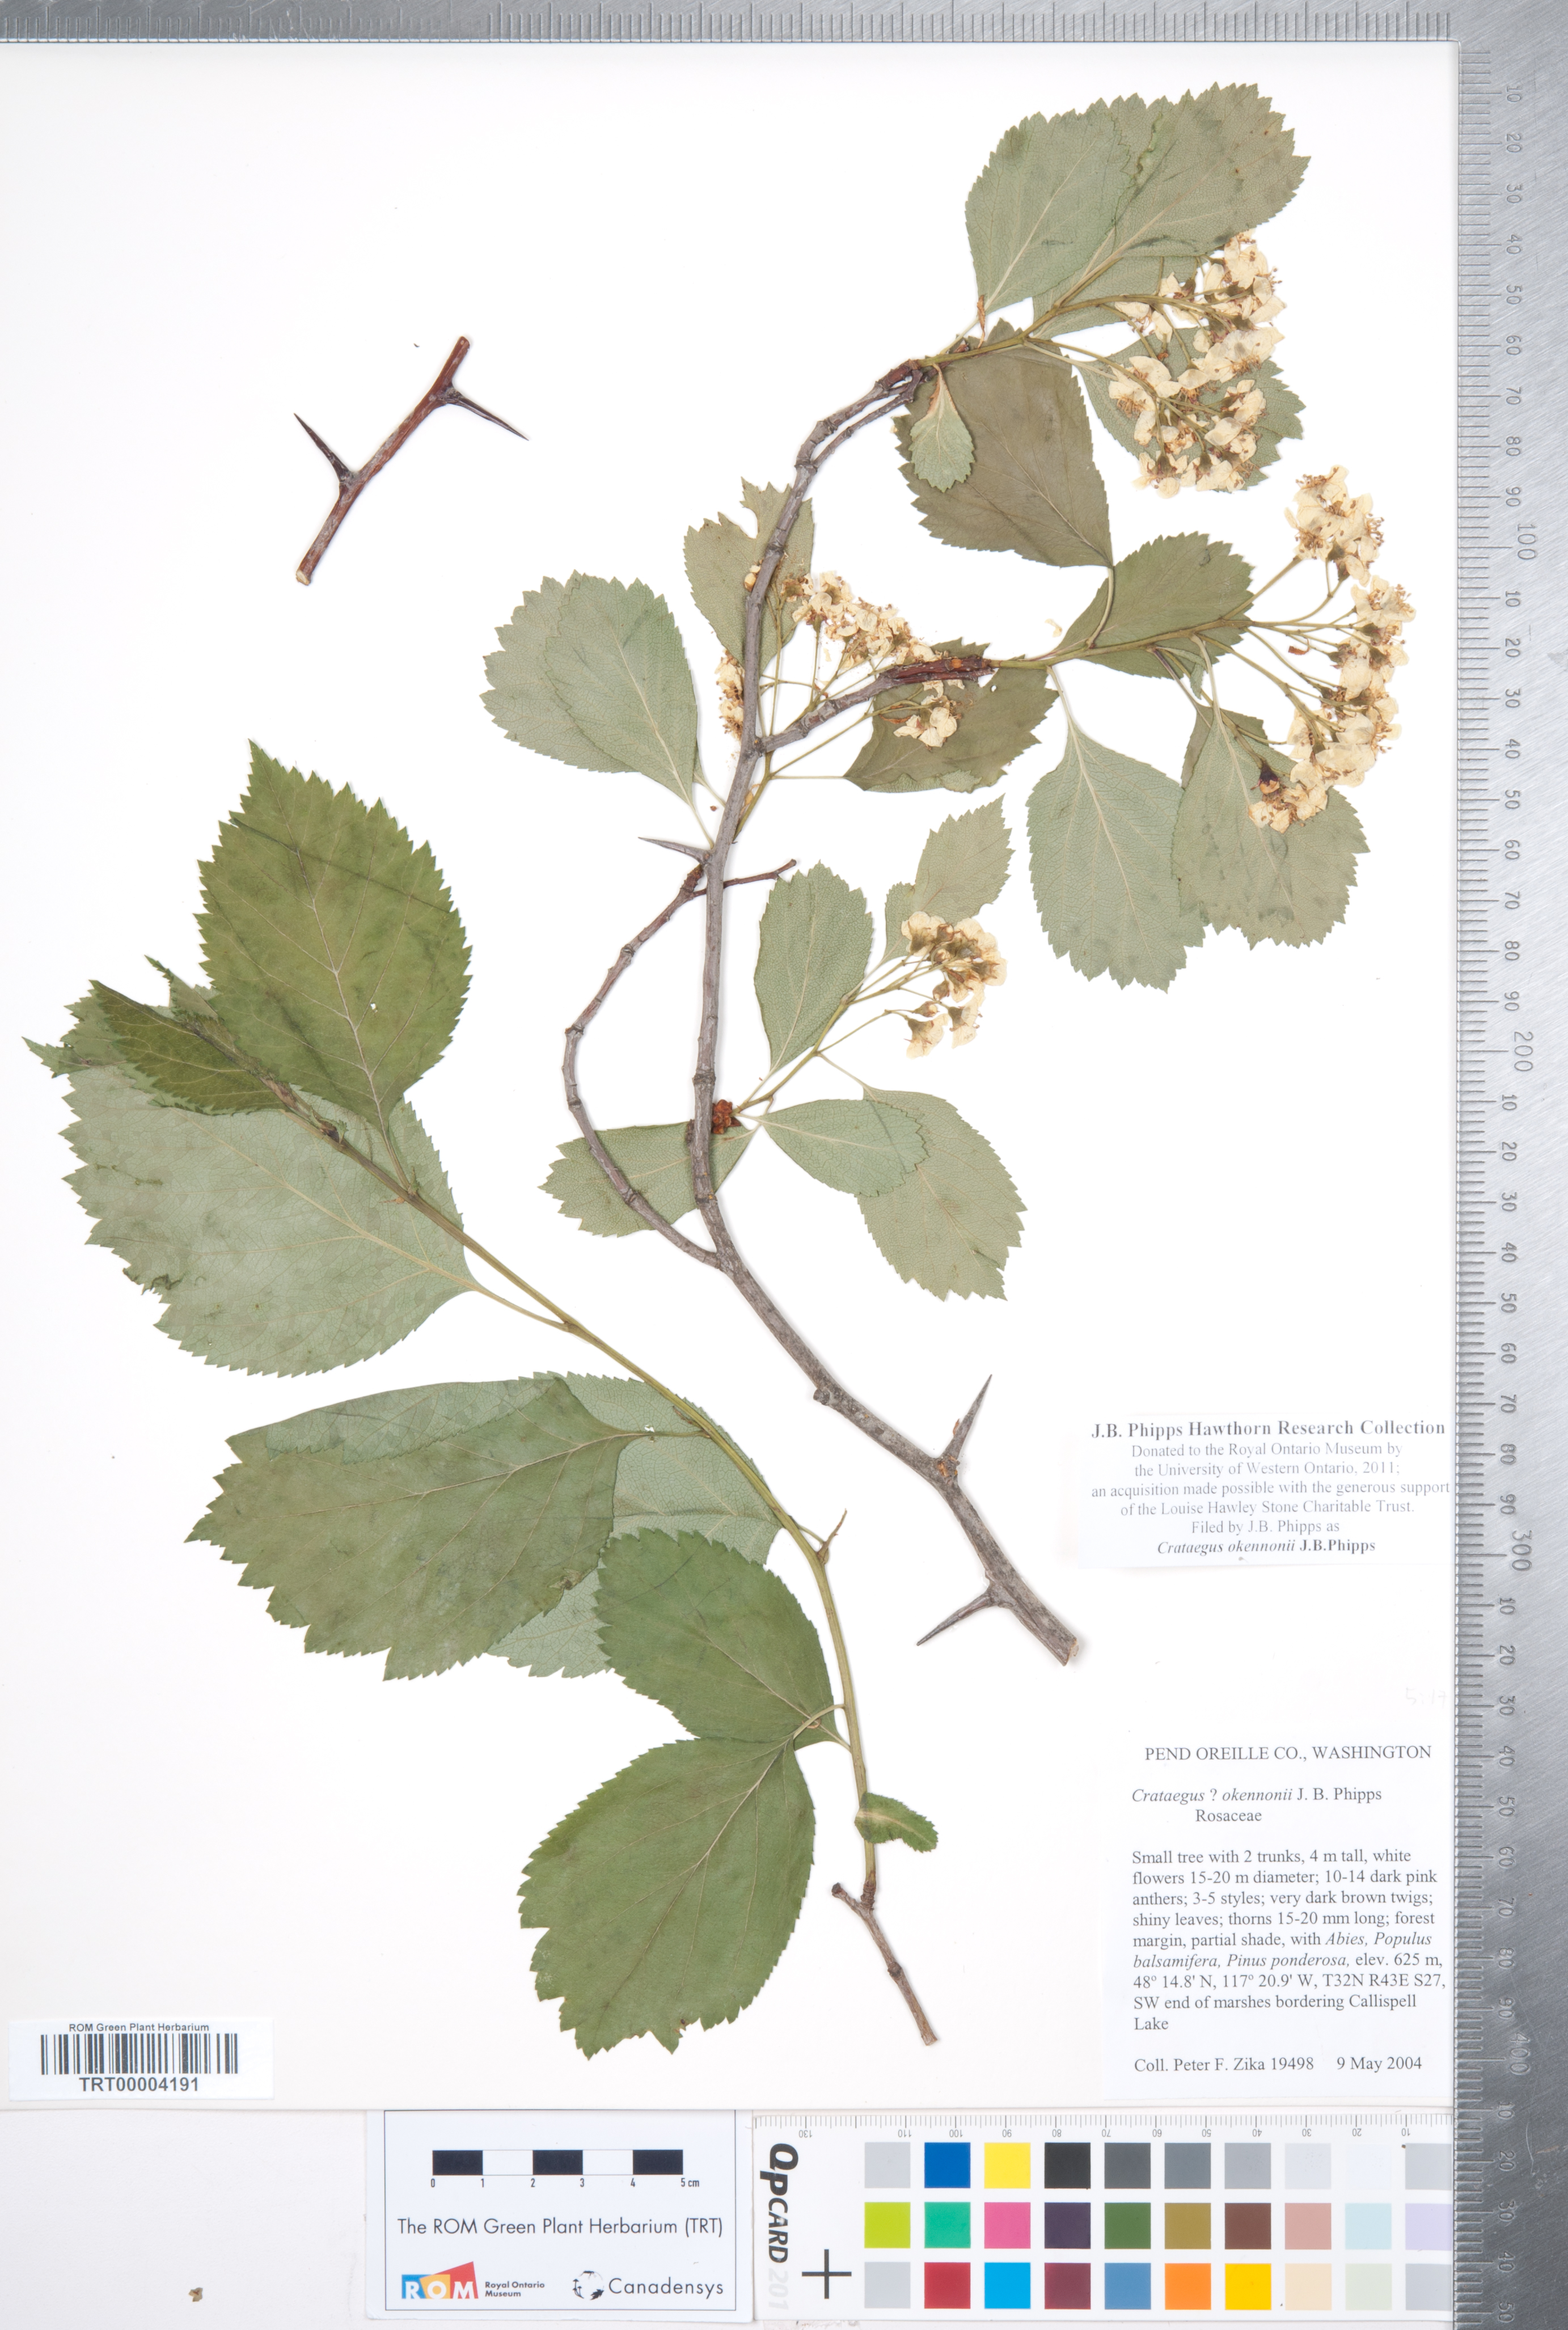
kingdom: Plantae
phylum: Tracheophyta
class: Magnoliopsida
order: Rosales
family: Rosaceae
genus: Crataegus
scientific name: Crataegus okennonii
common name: O'kennon's hawthorn
